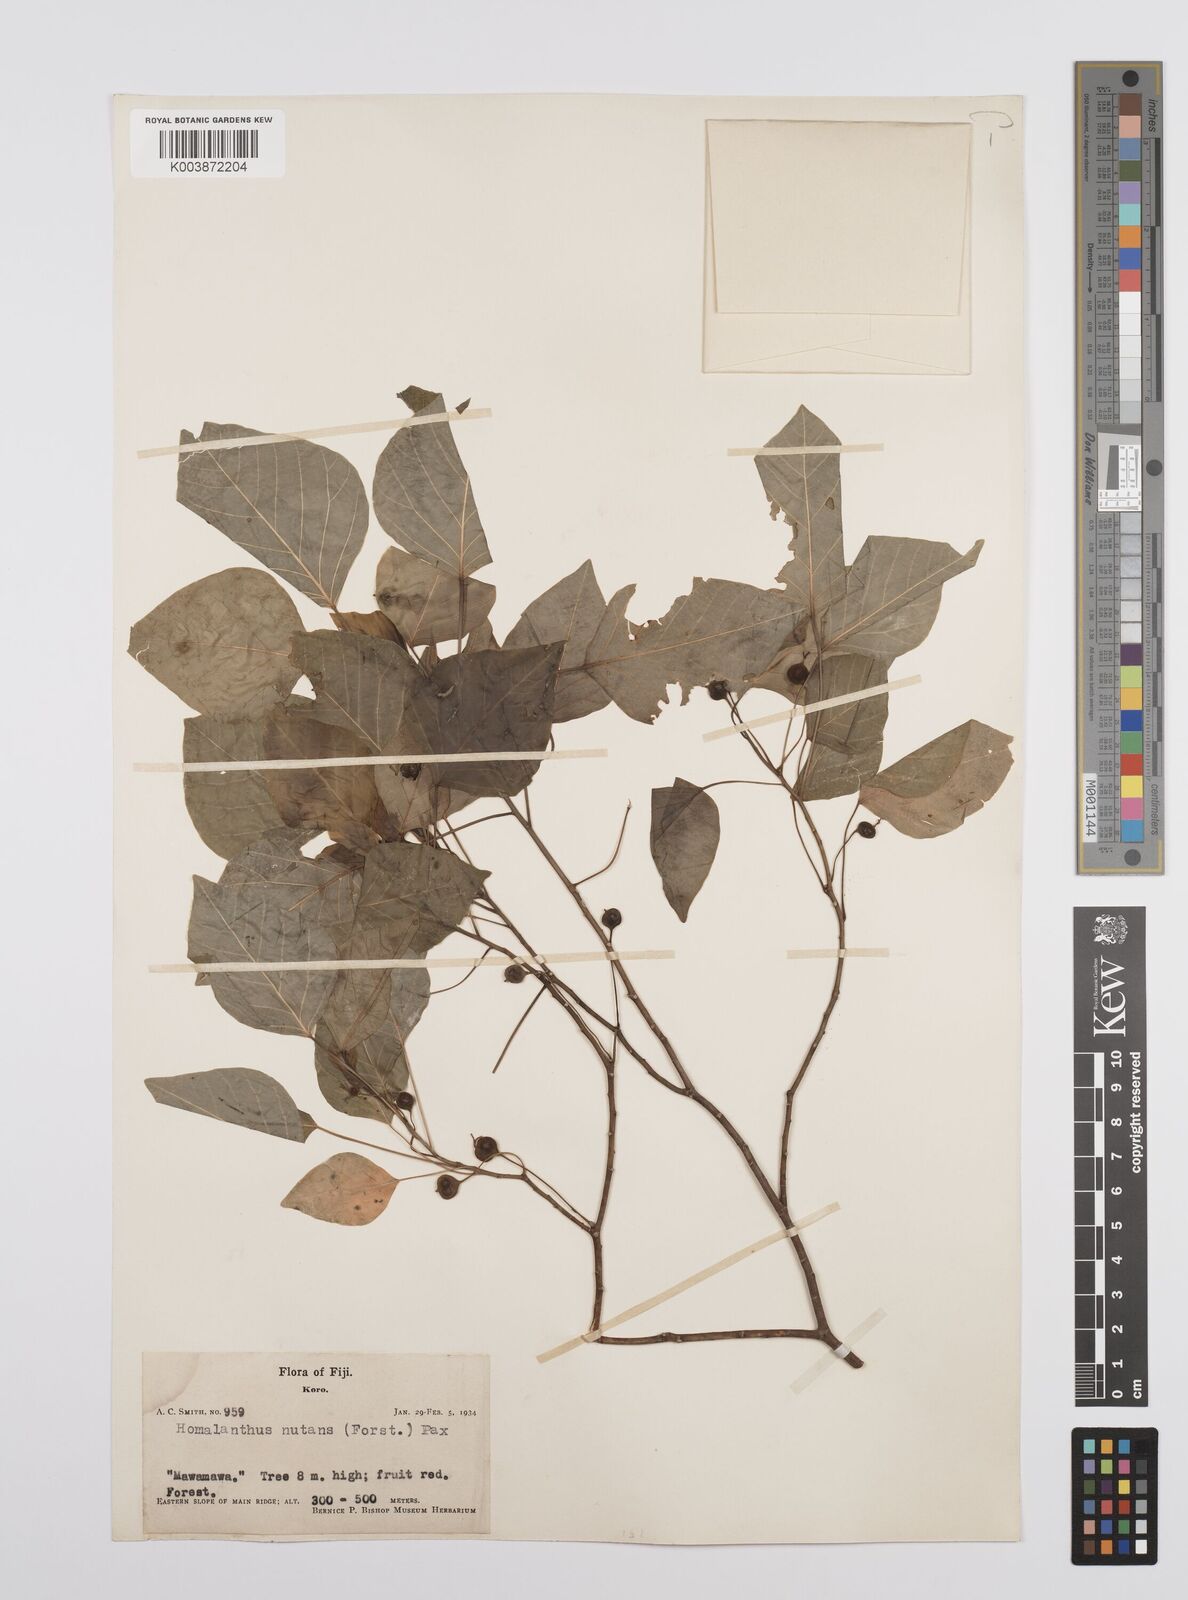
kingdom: Plantae
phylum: Tracheophyta
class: Magnoliopsida
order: Malpighiales
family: Euphorbiaceae
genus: Homalanthus
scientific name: Homalanthus nutans
